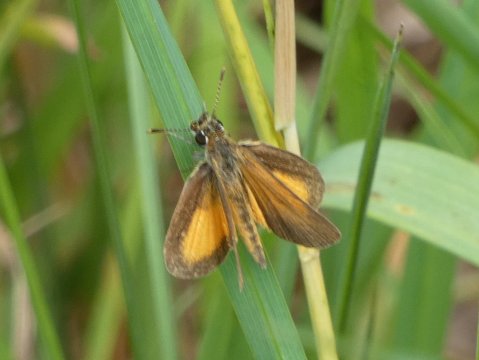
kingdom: Animalia
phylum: Arthropoda
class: Insecta
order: Lepidoptera
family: Hesperiidae
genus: Ancyloxypha
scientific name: Ancyloxypha numitor
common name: Least Skipper
